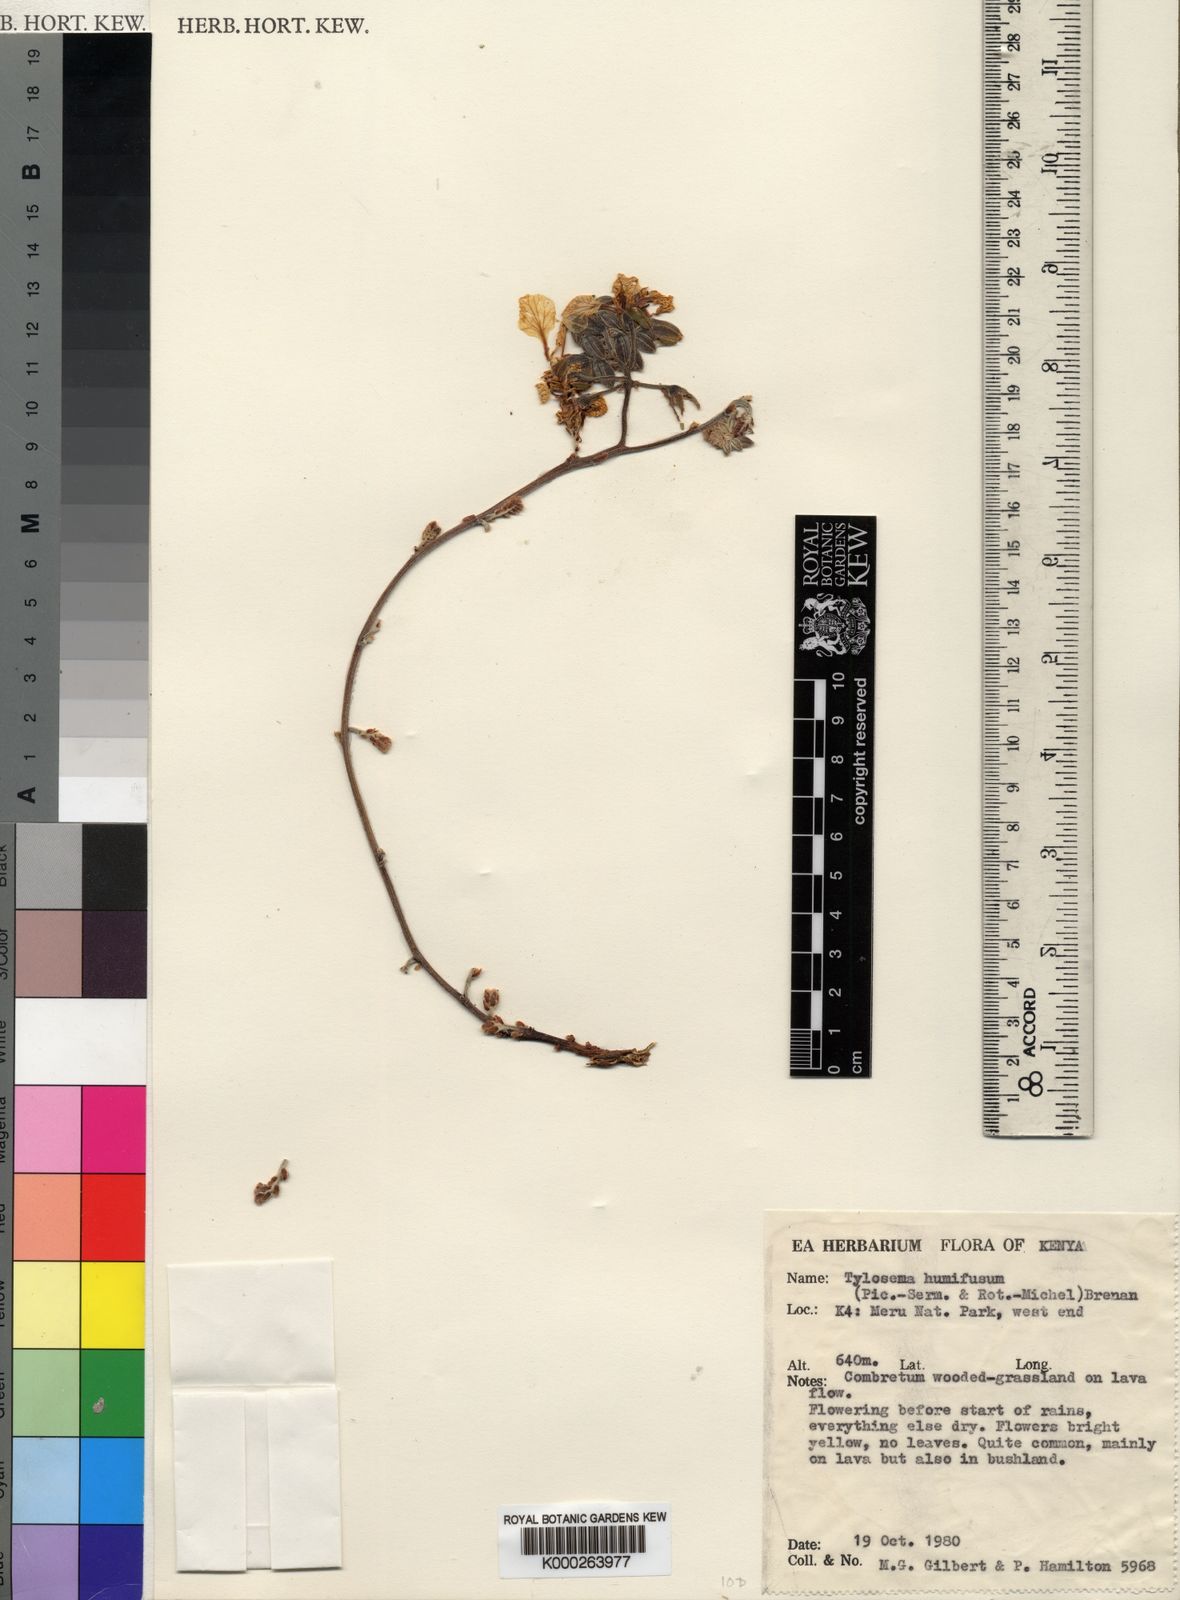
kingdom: Plantae
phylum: Tracheophyta
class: Magnoliopsida
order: Fabales
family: Fabaceae
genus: Tylosema
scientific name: Tylosema
